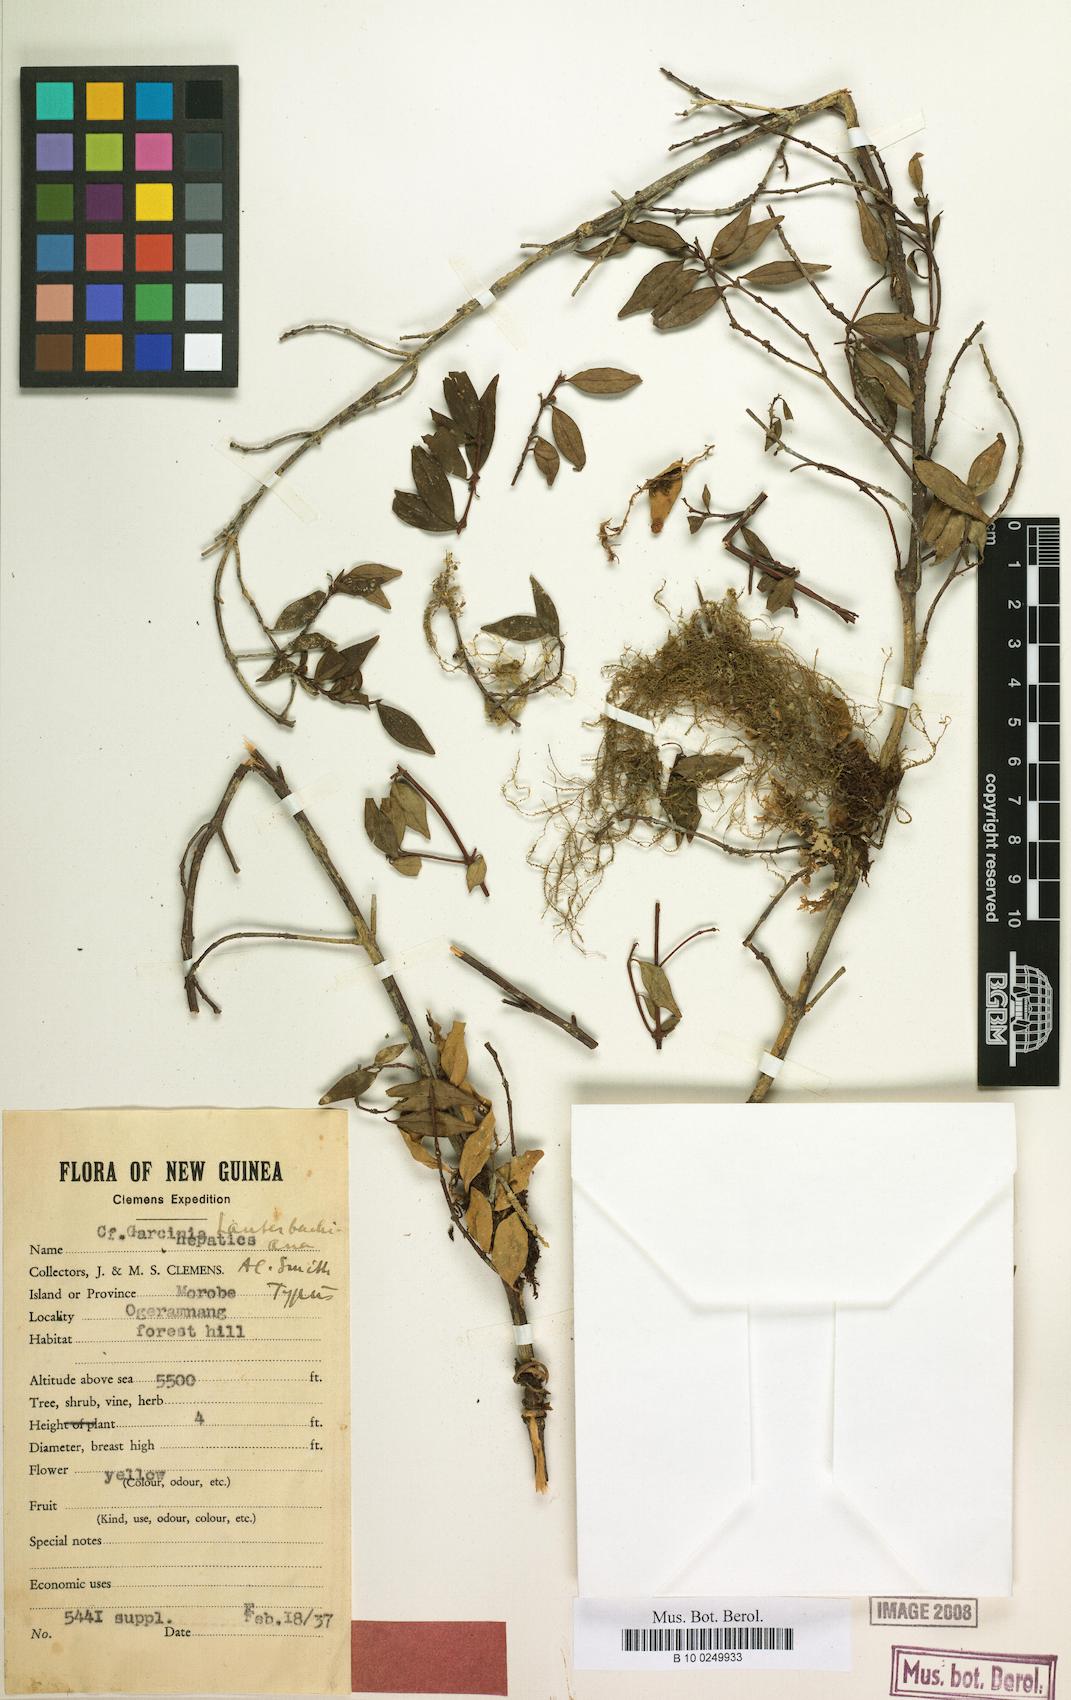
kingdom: Plantae
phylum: Tracheophyta
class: Magnoliopsida
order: Malpighiales
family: Clusiaceae
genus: Garcinia
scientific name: Garcinia lauterbachiana
